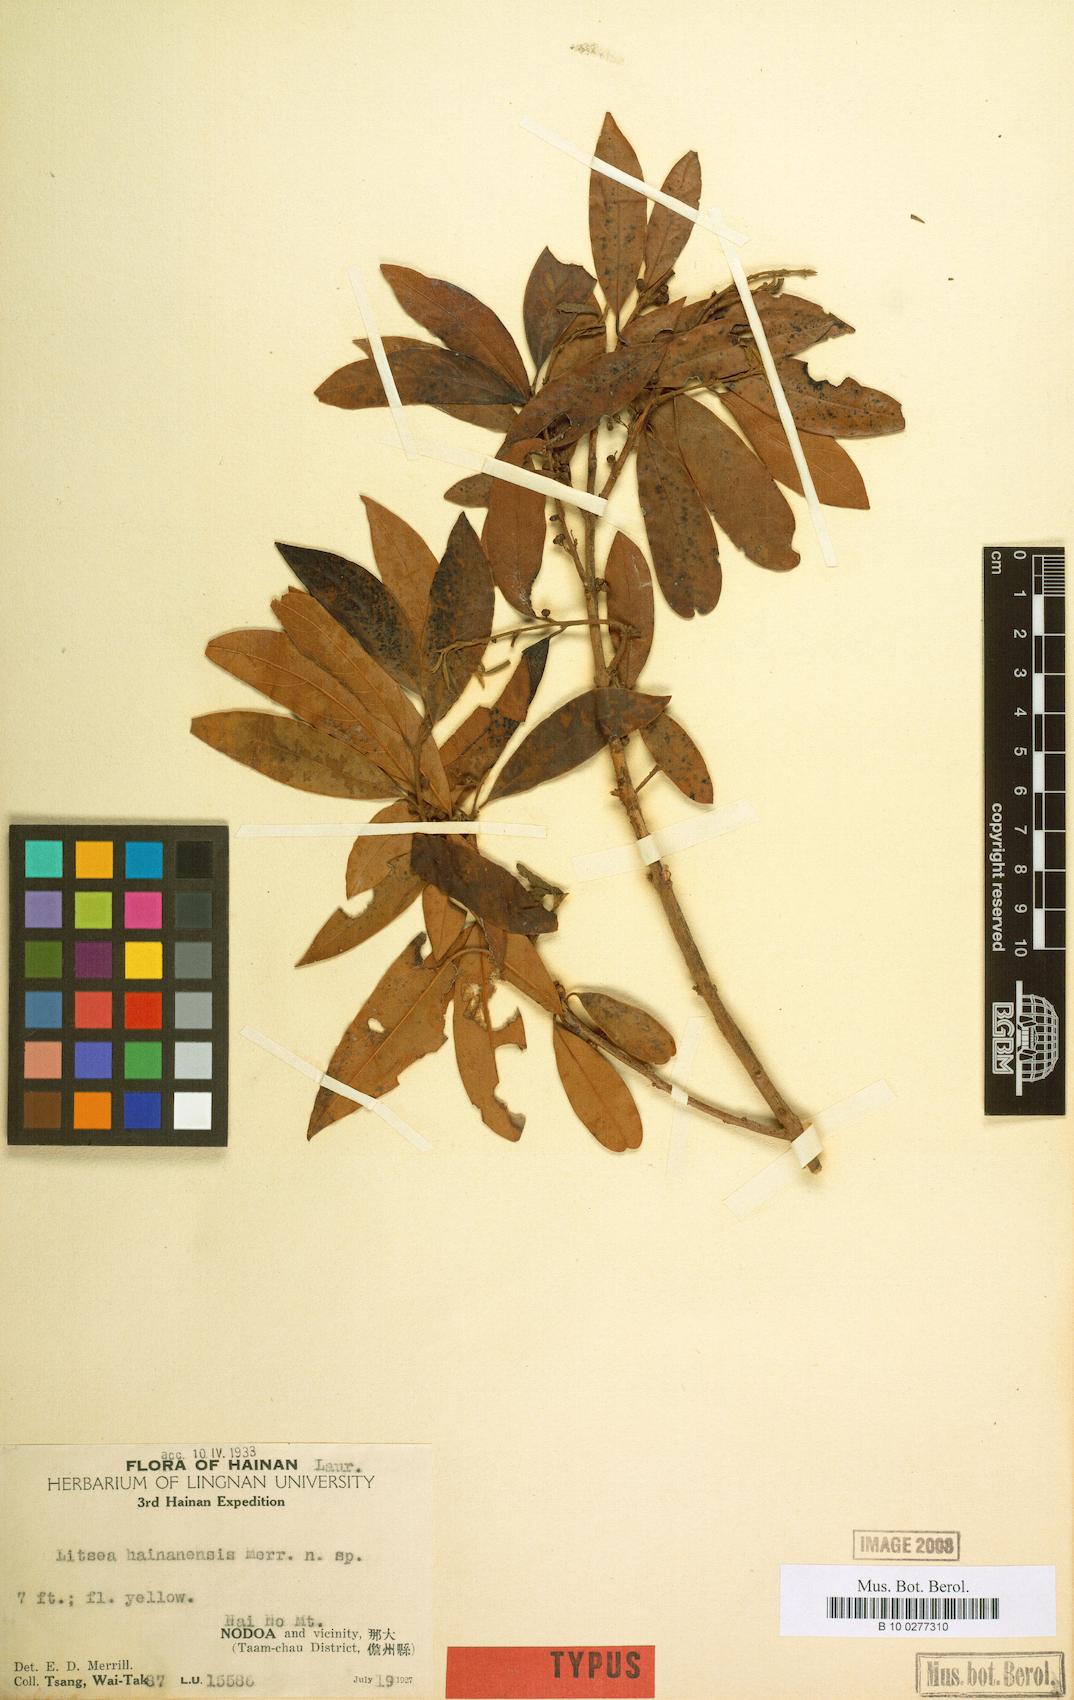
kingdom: Plantae
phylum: Tracheophyta
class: Magnoliopsida
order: Laurales
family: Lauraceae
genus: Litsea
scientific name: Litsea
